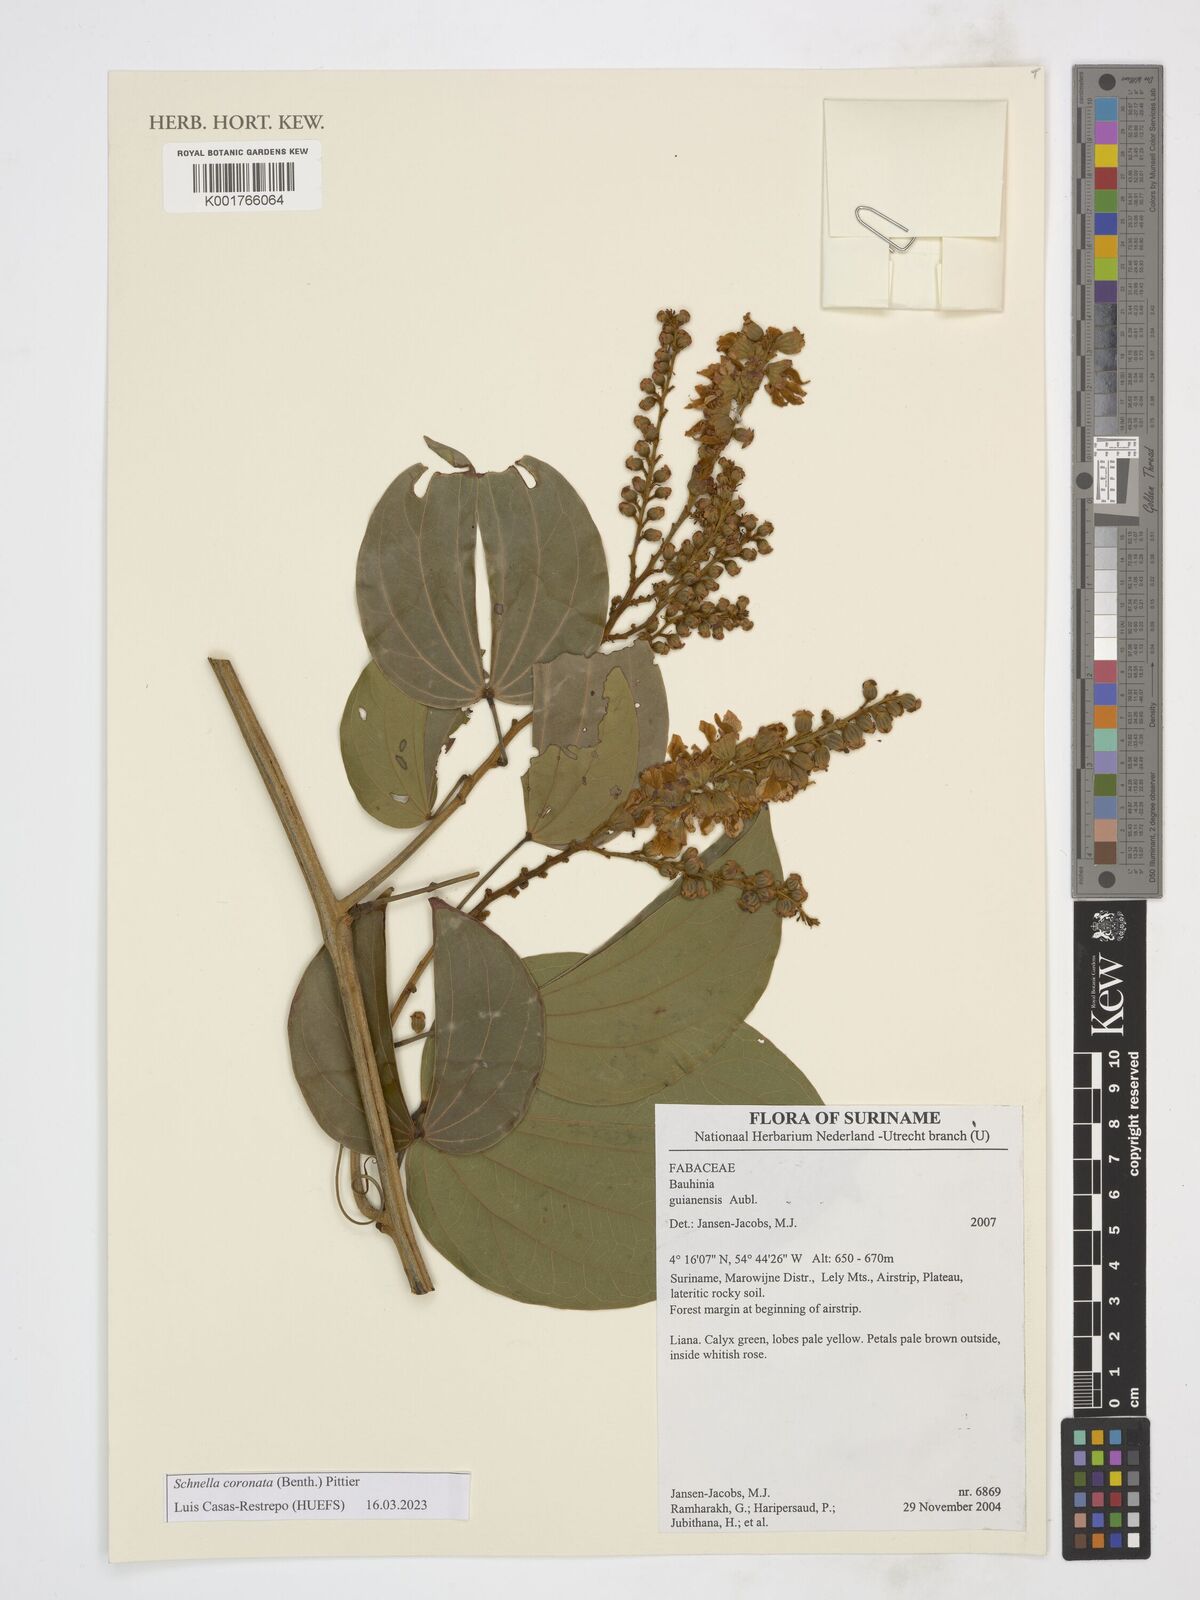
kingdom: Plantae
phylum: Tracheophyta
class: Magnoliopsida
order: Fabales
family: Fabaceae
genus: Schnella
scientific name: Schnella outimouta
